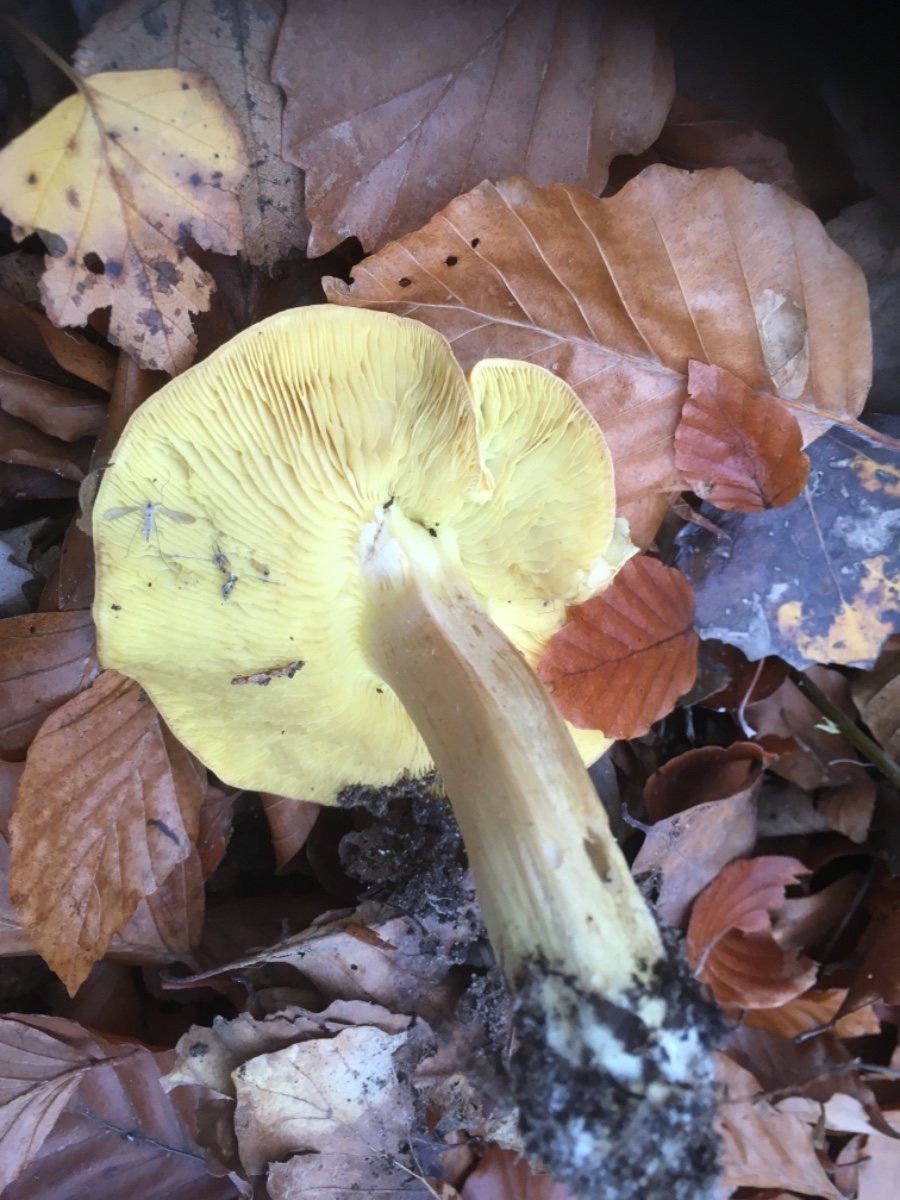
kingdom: Fungi
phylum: Basidiomycota
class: Agaricomycetes
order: Agaricales
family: Tricholomataceae
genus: Tricholoma
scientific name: Tricholoma frondosae
